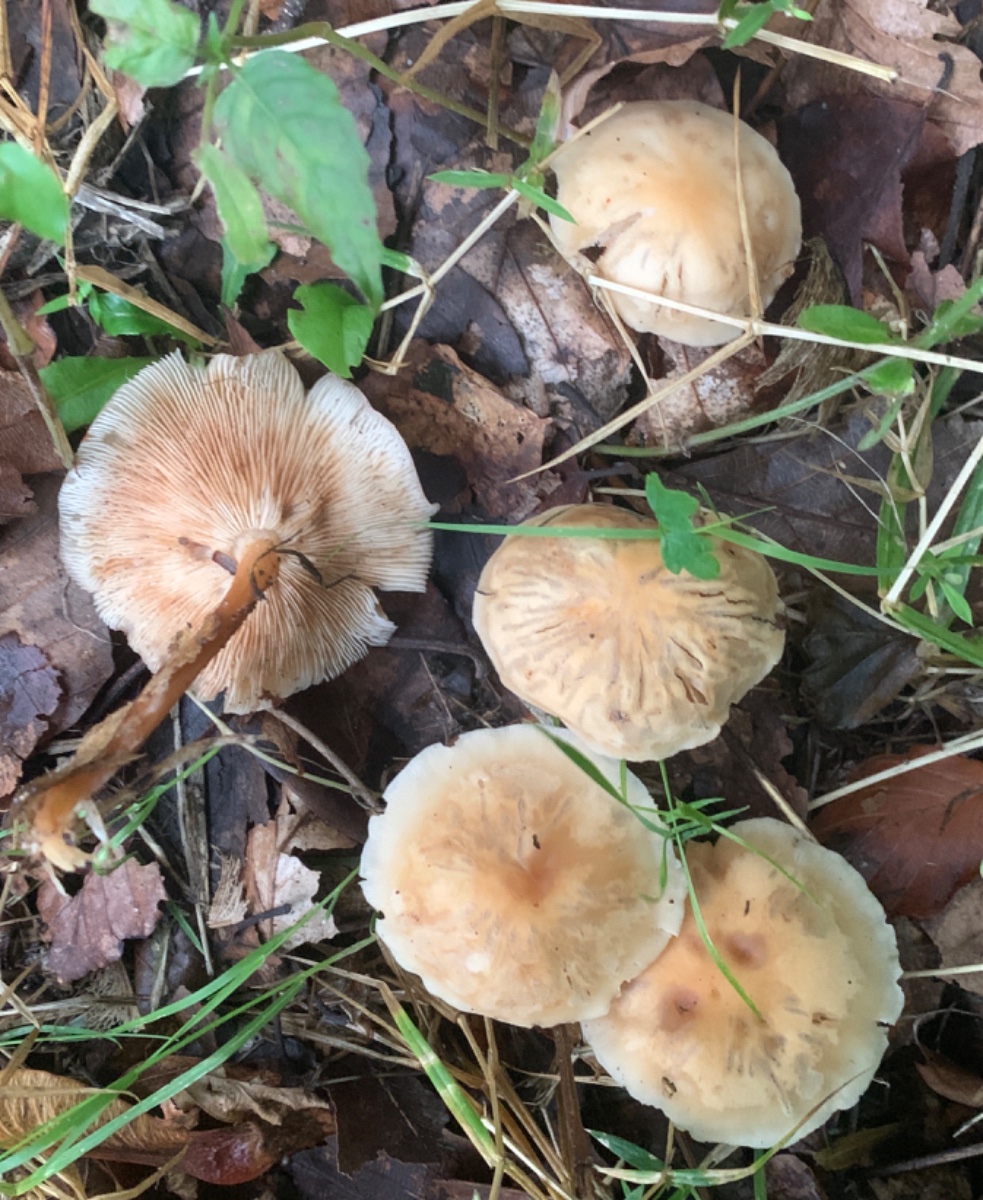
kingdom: Fungi
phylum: Basidiomycota
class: Agaricomycetes
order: Agaricales
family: Omphalotaceae
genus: Gymnopus
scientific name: Gymnopus dryophilus
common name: løv-fladhat
